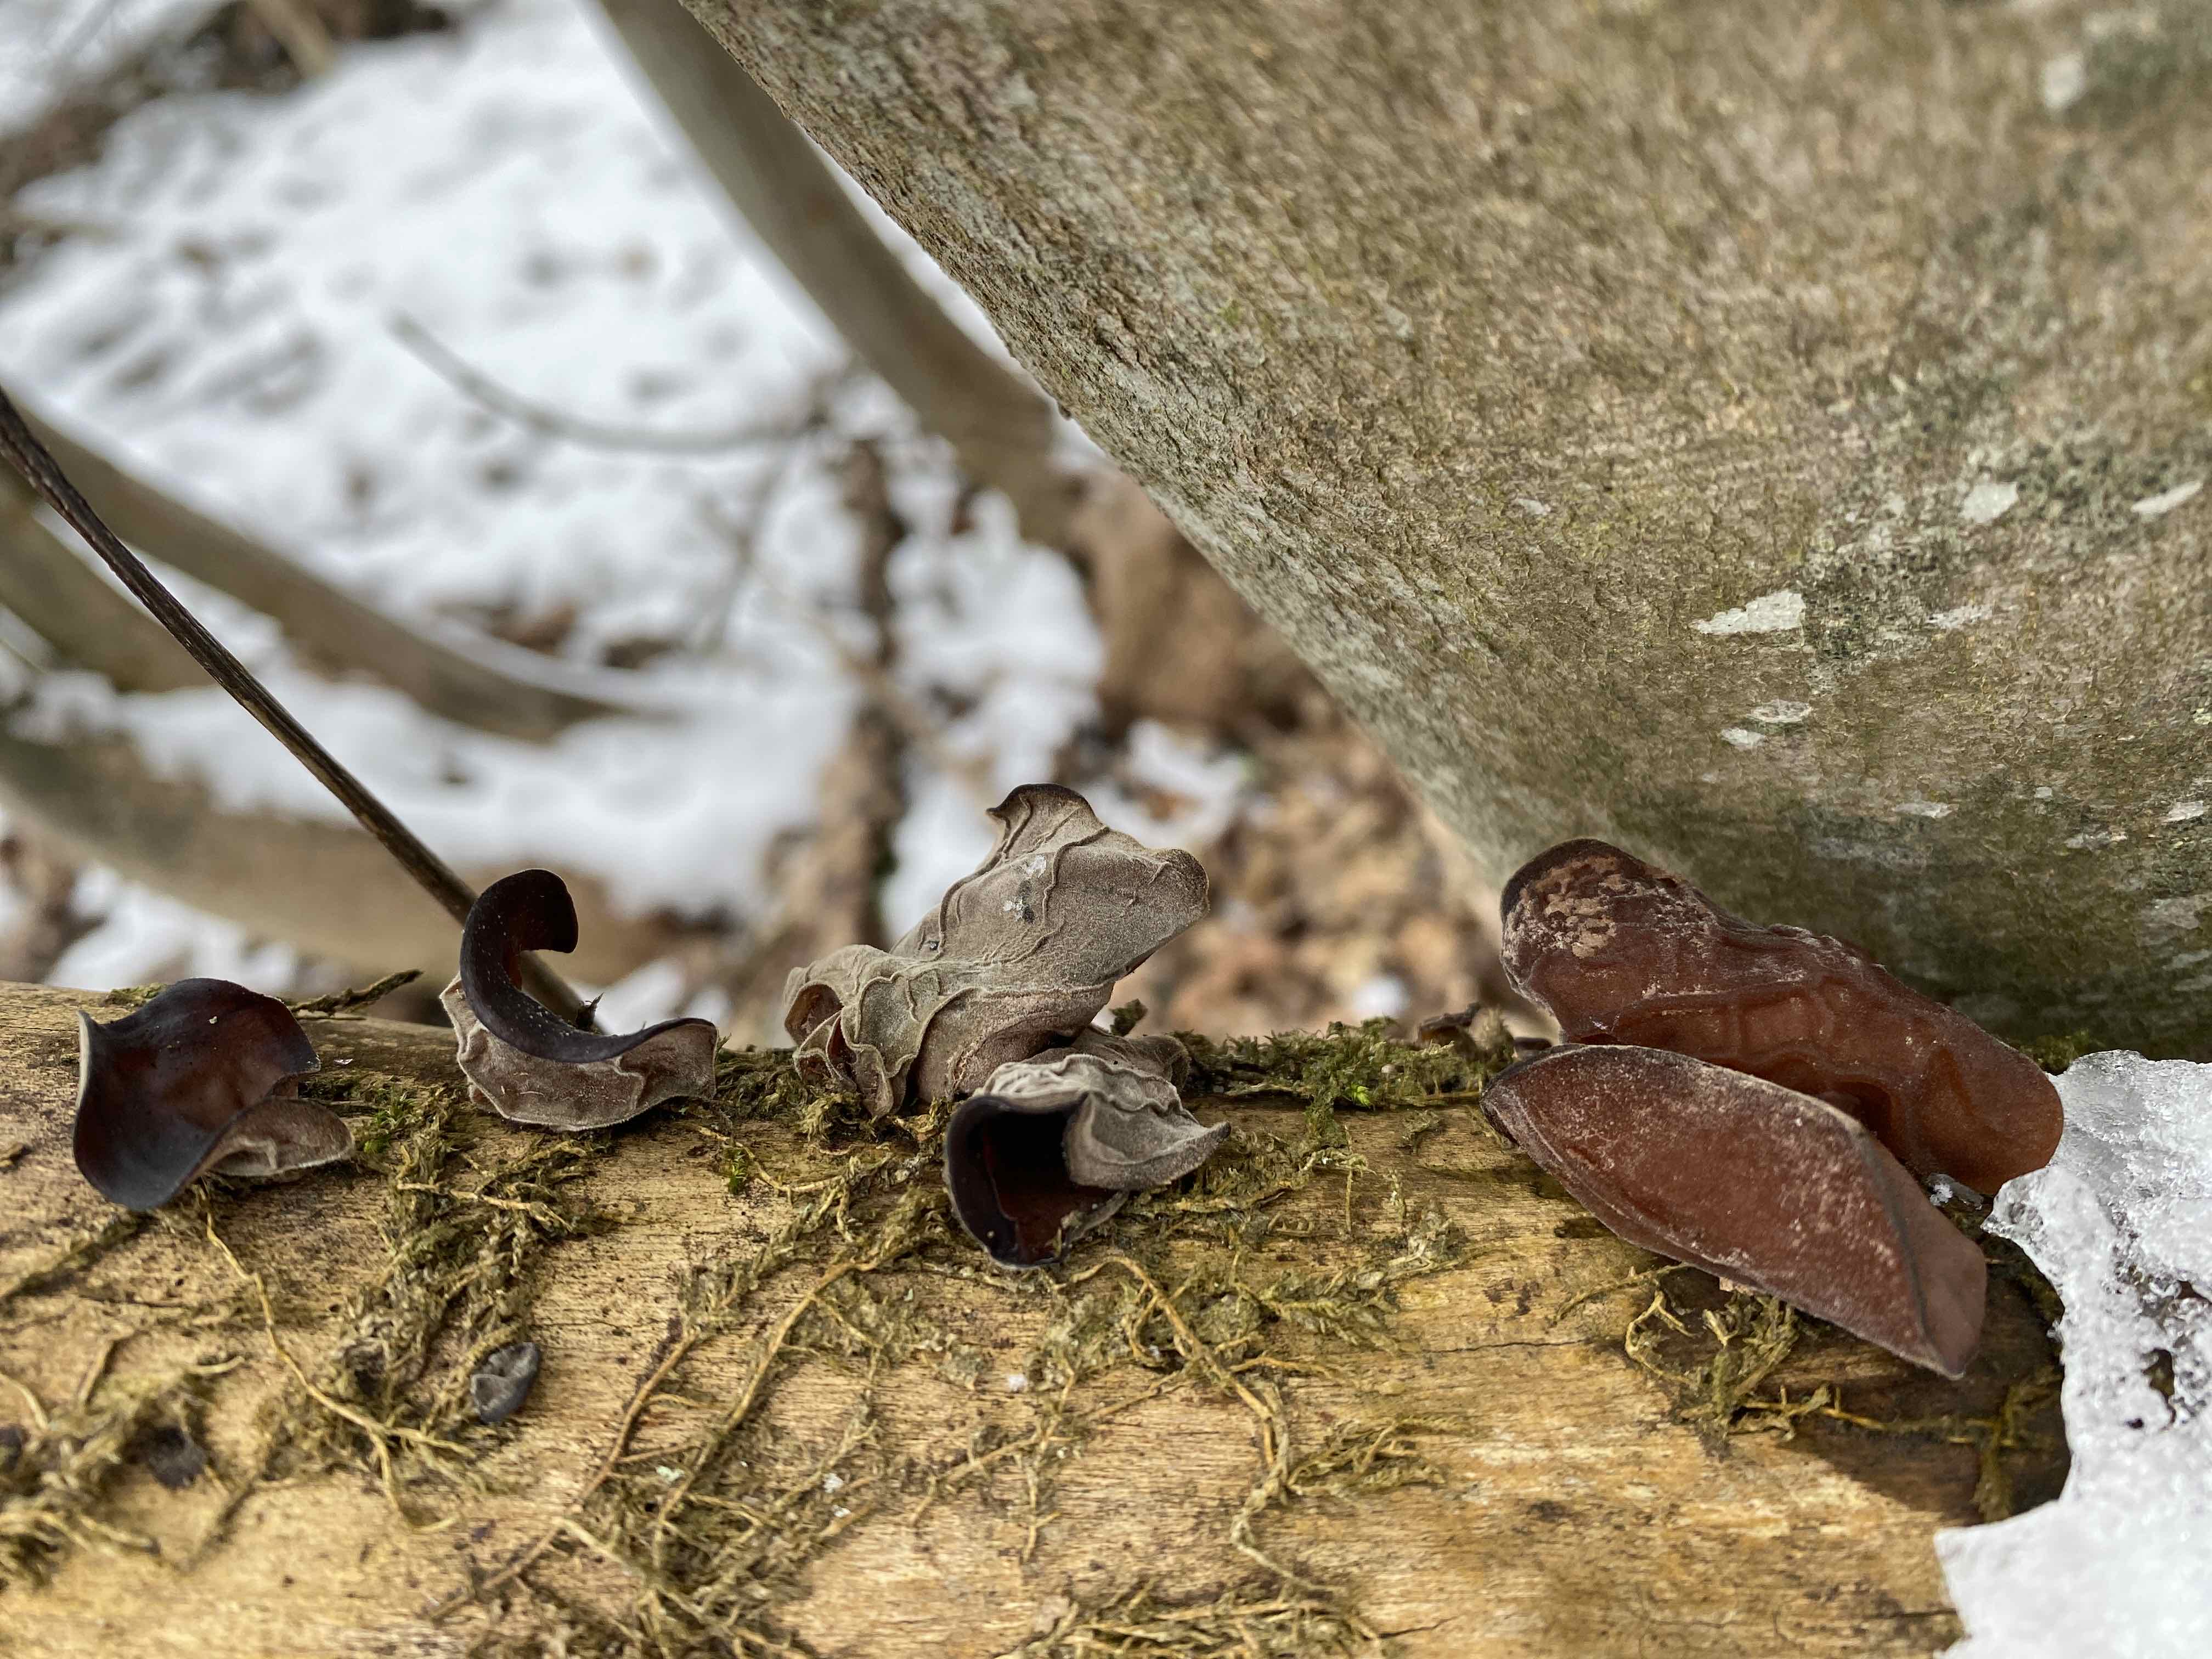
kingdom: Fungi
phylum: Basidiomycota
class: Agaricomycetes
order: Auriculariales
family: Auriculariaceae
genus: Auricularia
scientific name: Auricularia auricula-judae
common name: almindelig judasøre
